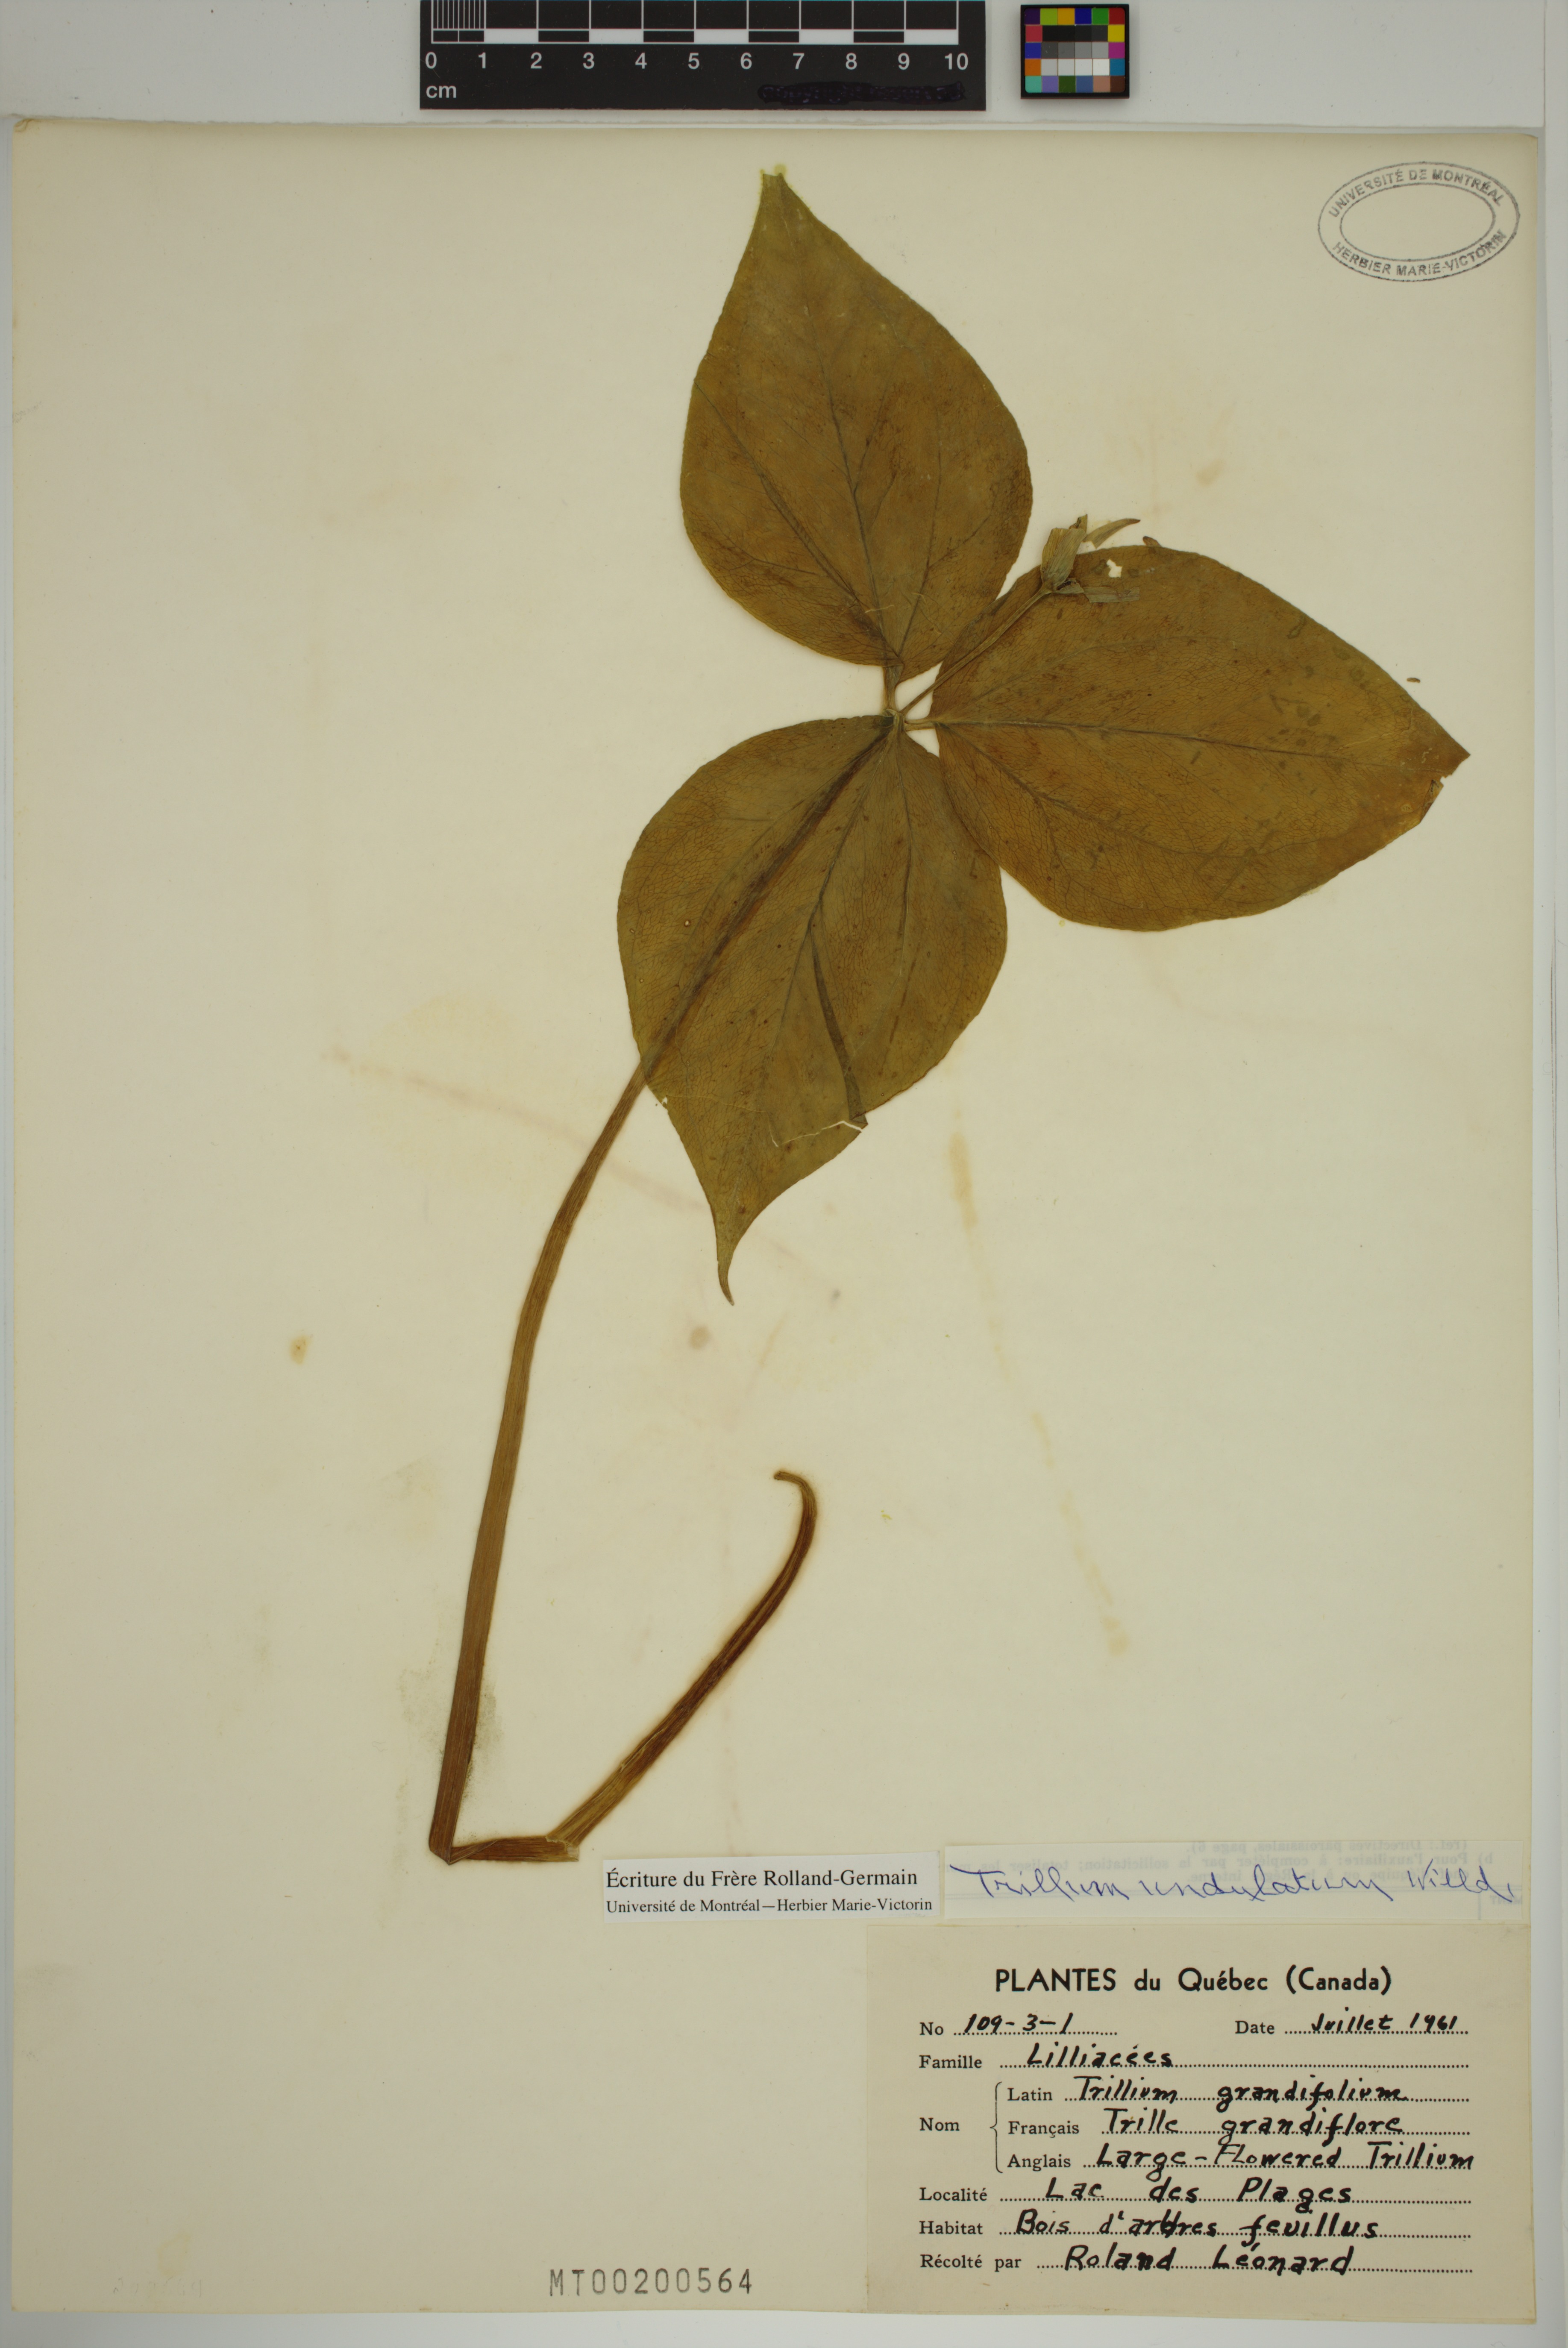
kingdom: Plantae
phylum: Tracheophyta
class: Liliopsida
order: Liliales
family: Melanthiaceae
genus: Trillium
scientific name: Trillium undulatum
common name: Paint trillium
